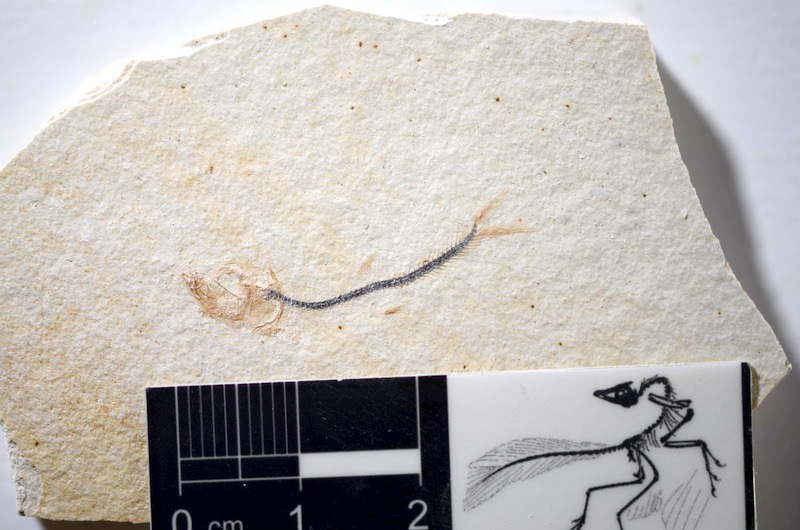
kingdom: Animalia
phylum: Chordata
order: Salmoniformes
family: Orthogonikleithridae
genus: Orthogonikleithrus
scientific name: Orthogonikleithrus hoelli
